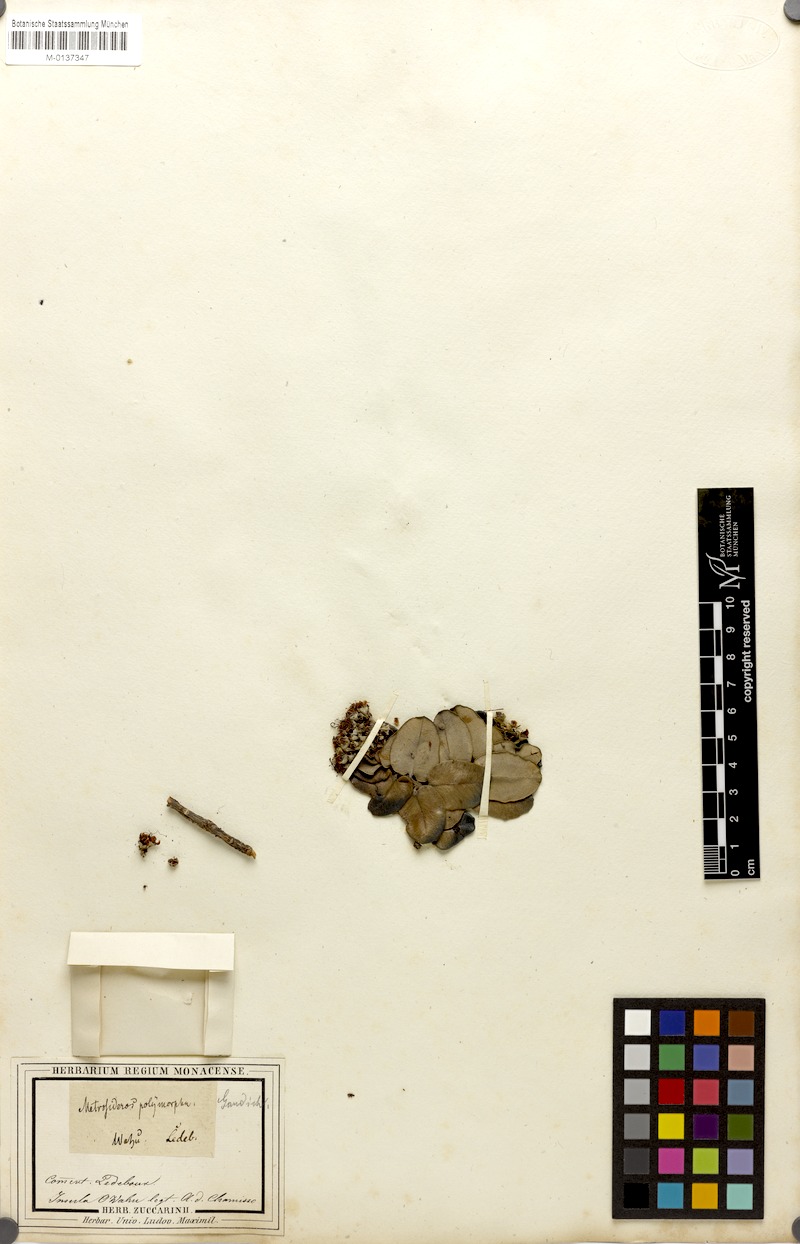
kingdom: Plantae
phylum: Tracheophyta
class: Magnoliopsida
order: Myrtales
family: Myrtaceae
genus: Metrosideros
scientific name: Metrosideros polymorpha
